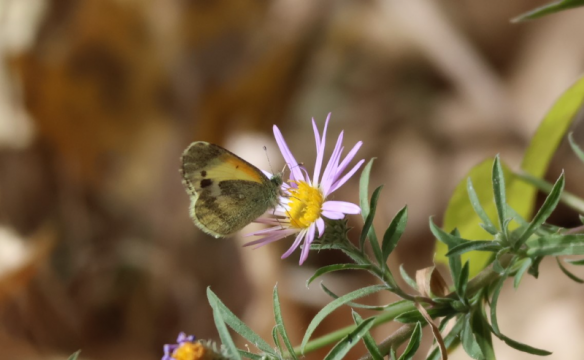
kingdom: Animalia
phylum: Arthropoda
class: Insecta
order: Lepidoptera
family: Pieridae
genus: Nathalis
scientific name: Nathalis iole
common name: Dainty Sulphur
